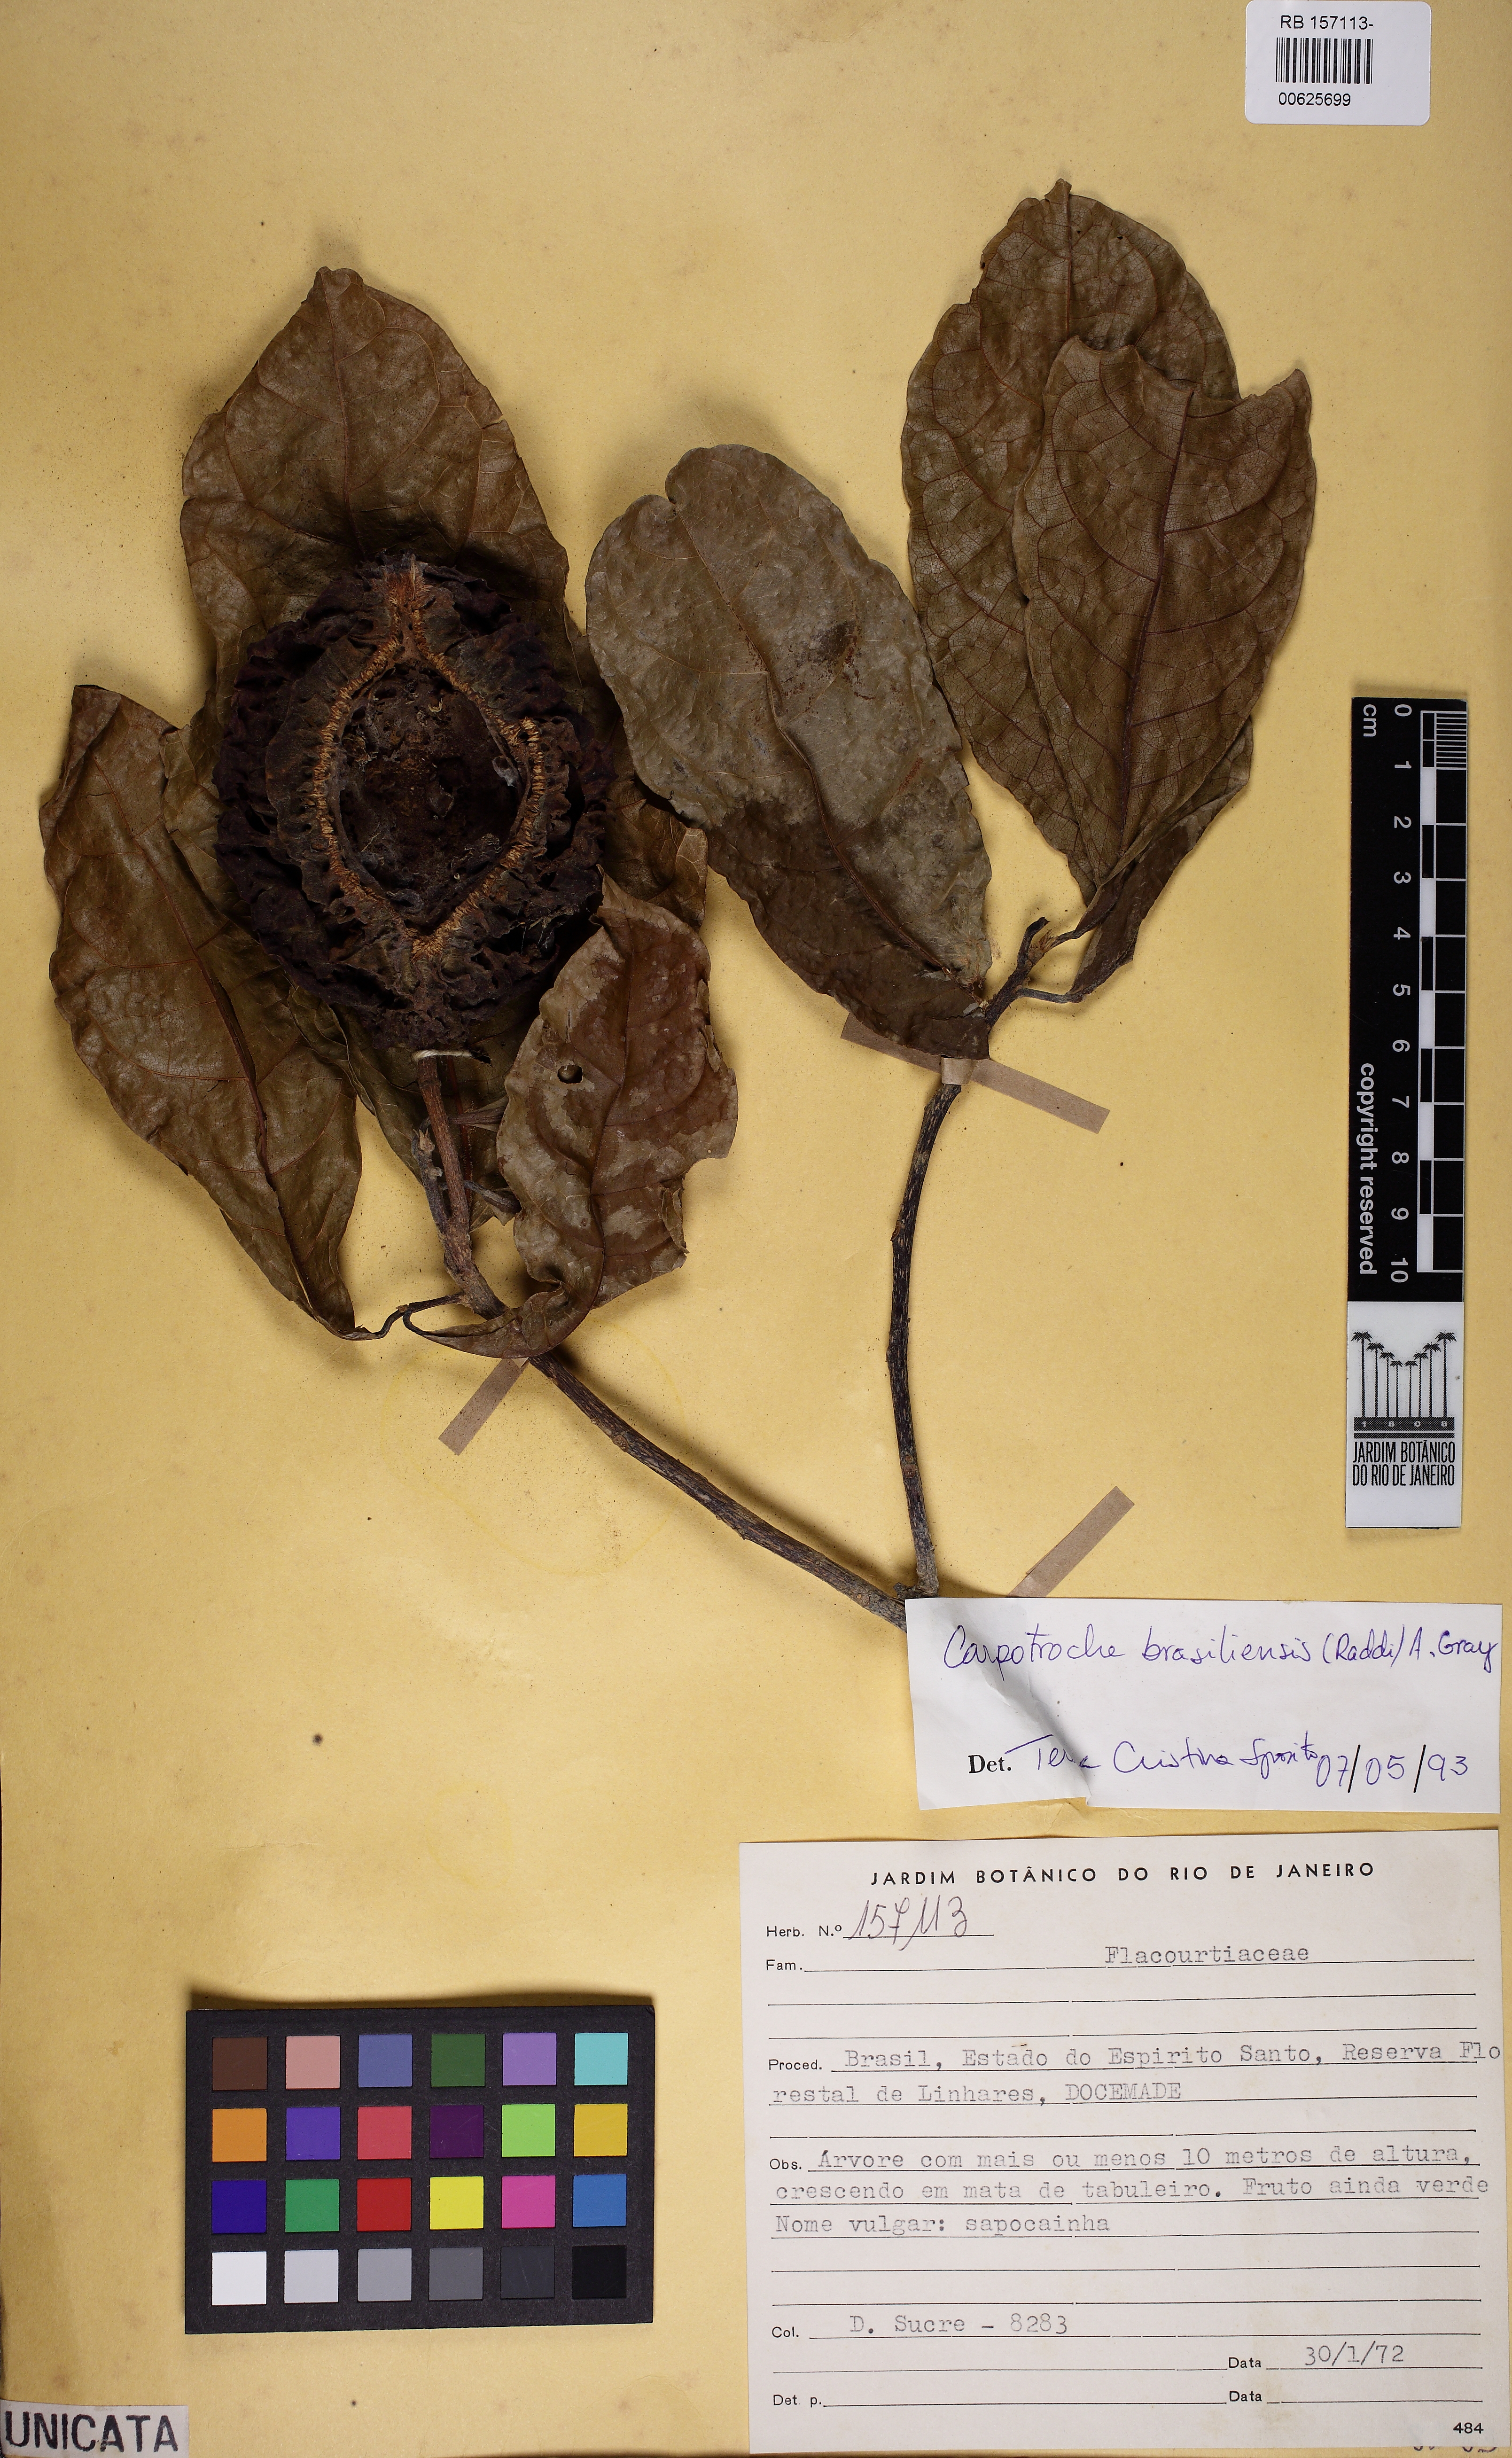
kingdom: Plantae
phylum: Tracheophyta
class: Magnoliopsida
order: Malpighiales
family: Achariaceae
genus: Carpotroche
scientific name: Carpotroche brasiliensis
